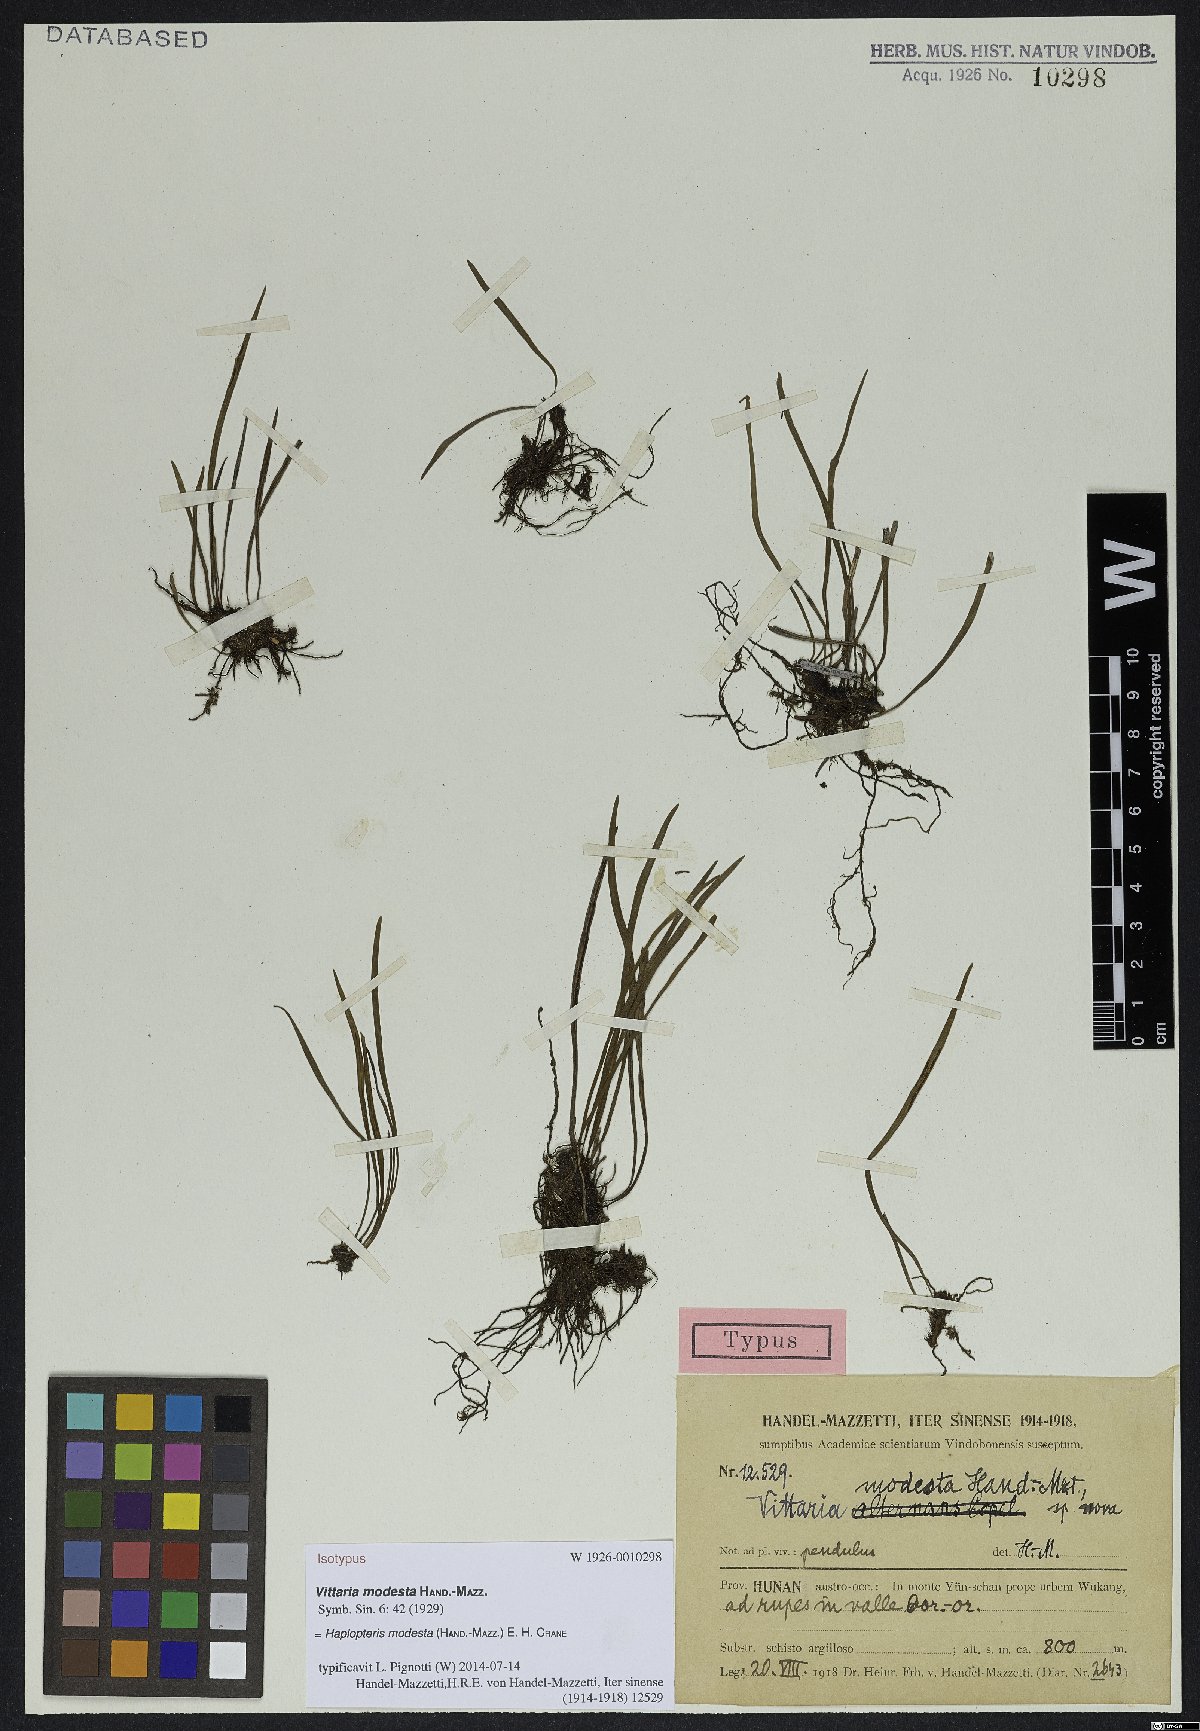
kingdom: Plantae
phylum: Tracheophyta
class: Polypodiopsida
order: Polypodiales
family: Pteridaceae
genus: Haplopteris
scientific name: Haplopteris flexuosa
